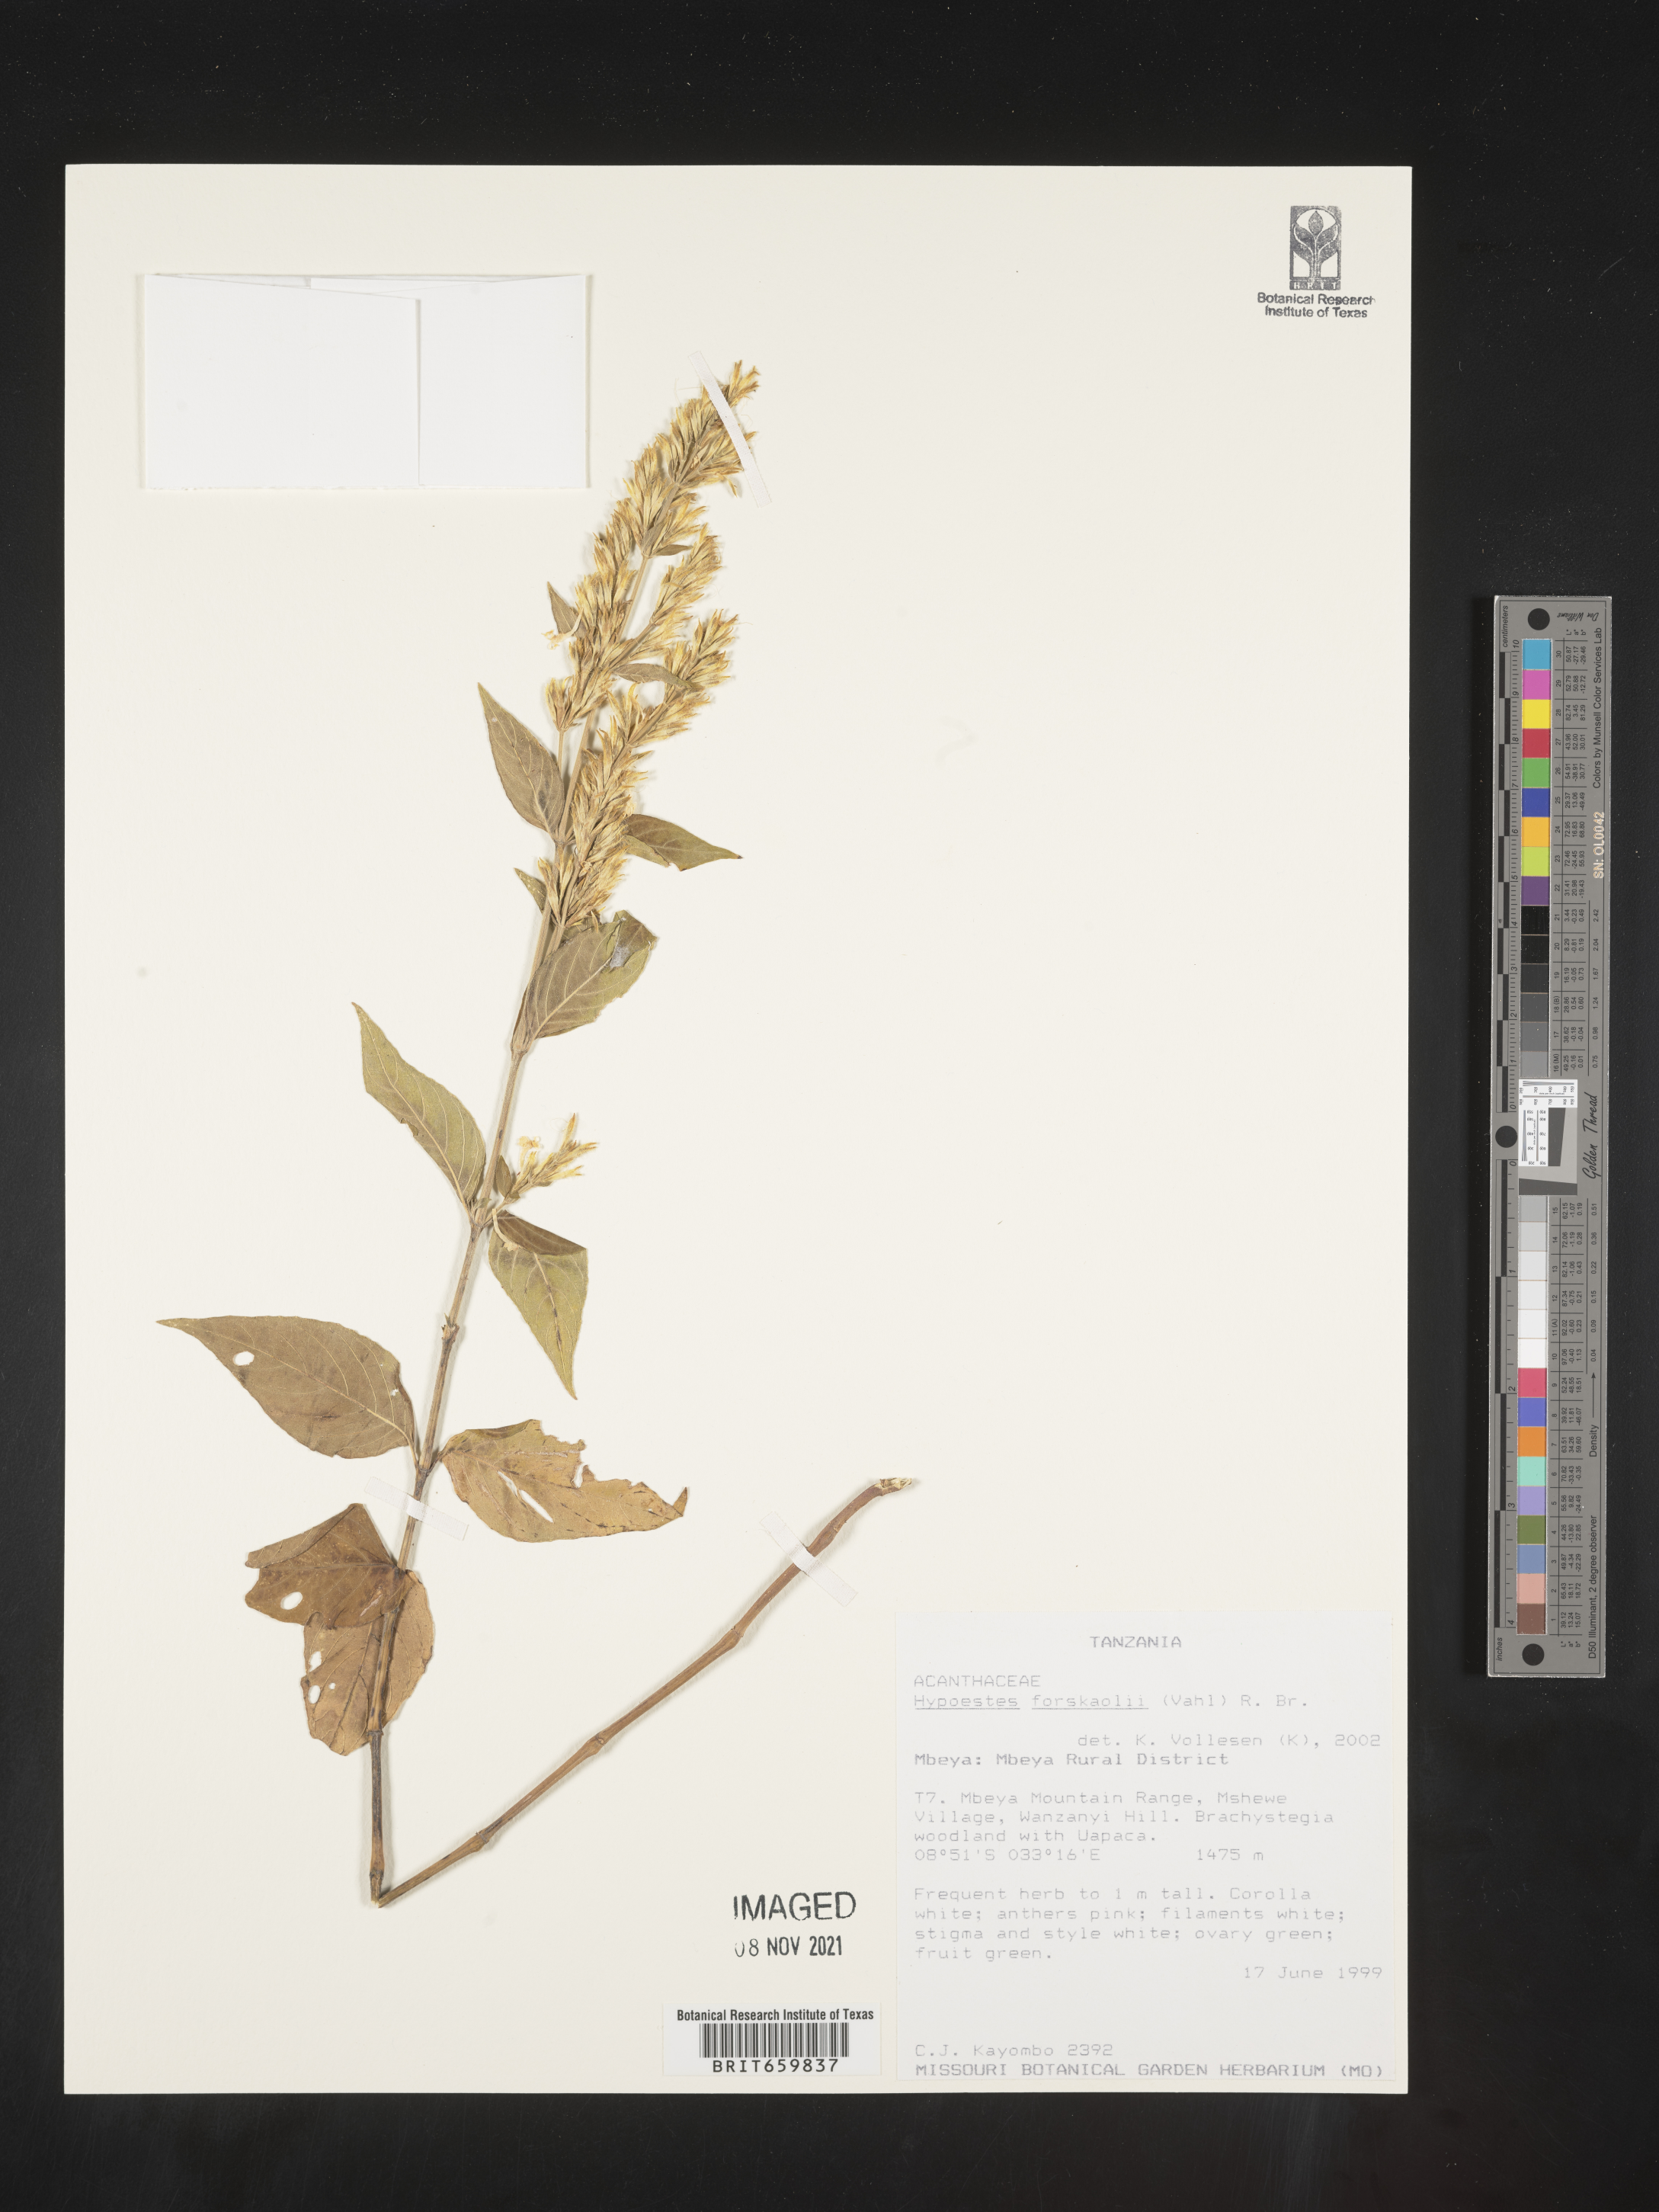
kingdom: Plantae
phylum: Tracheophyta
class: Magnoliopsida
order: Lamiales
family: Acanthaceae
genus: Hypoestes
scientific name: Hypoestes forskaolii
